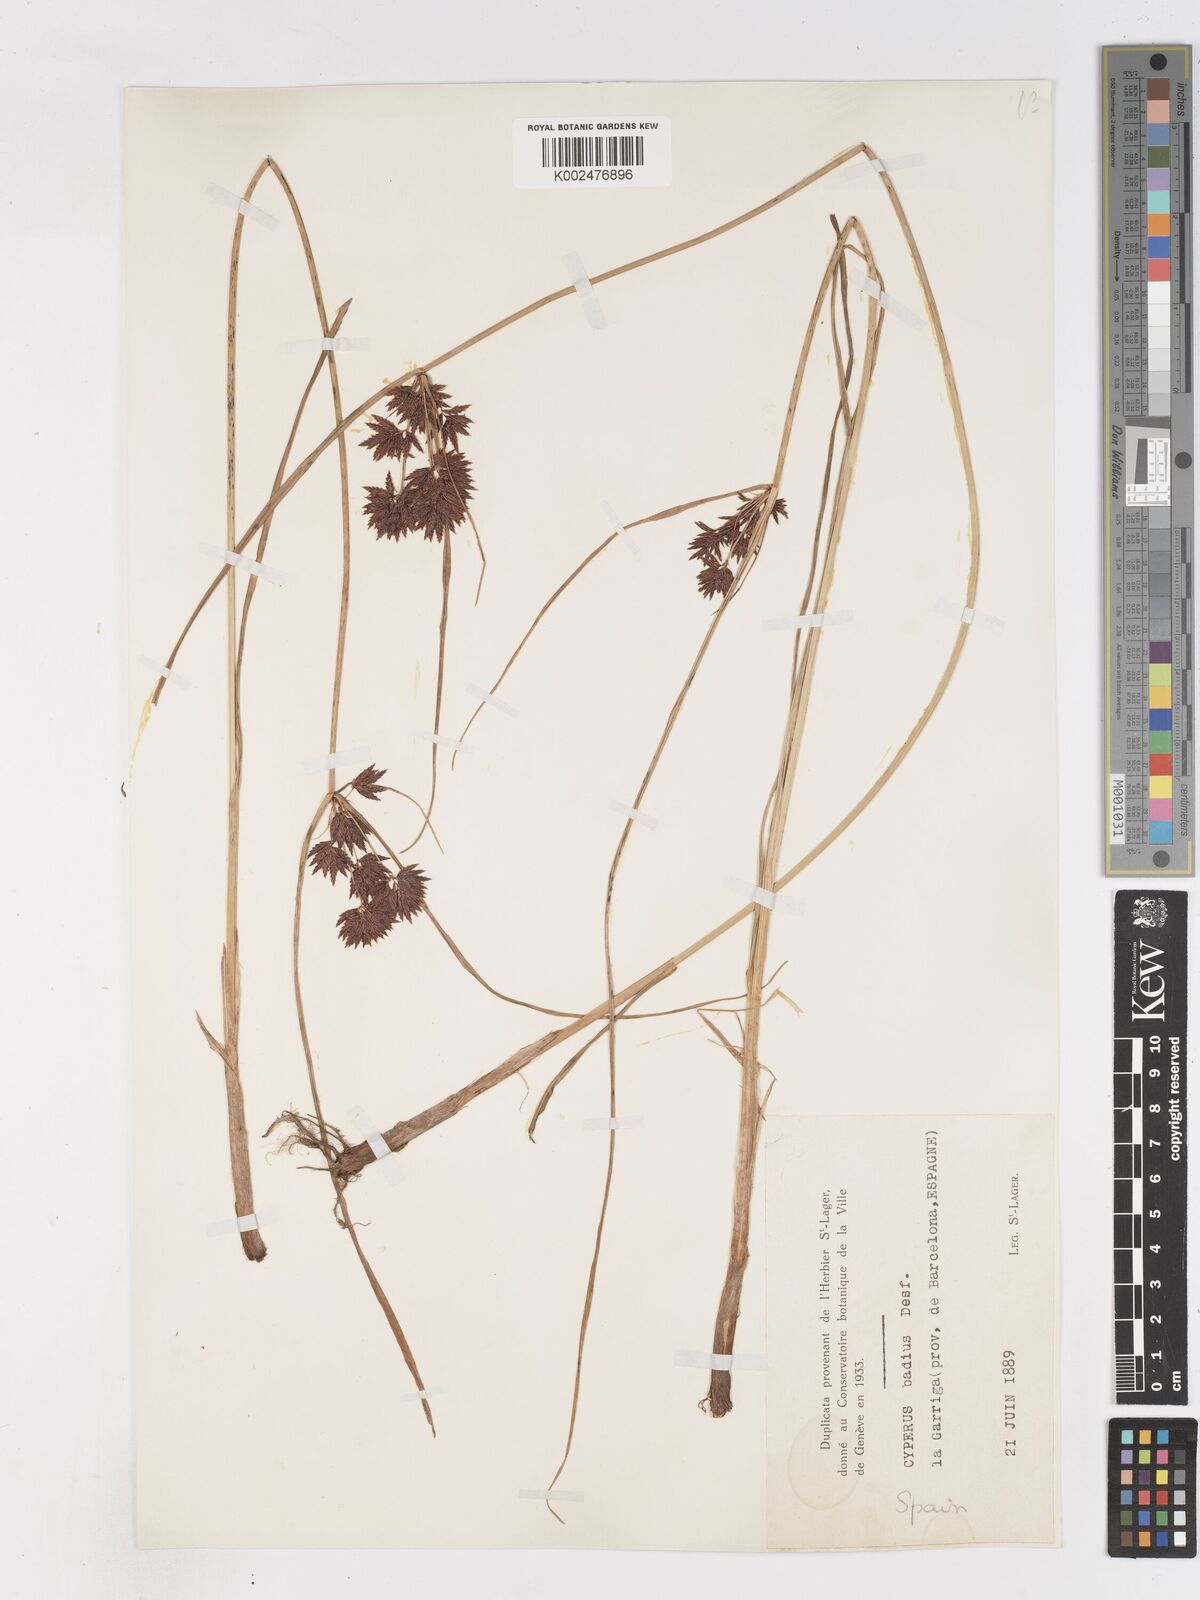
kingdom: Plantae
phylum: Tracheophyta
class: Liliopsida
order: Poales
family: Cyperaceae
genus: Cyperus
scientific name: Cyperus longus
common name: Galingale
